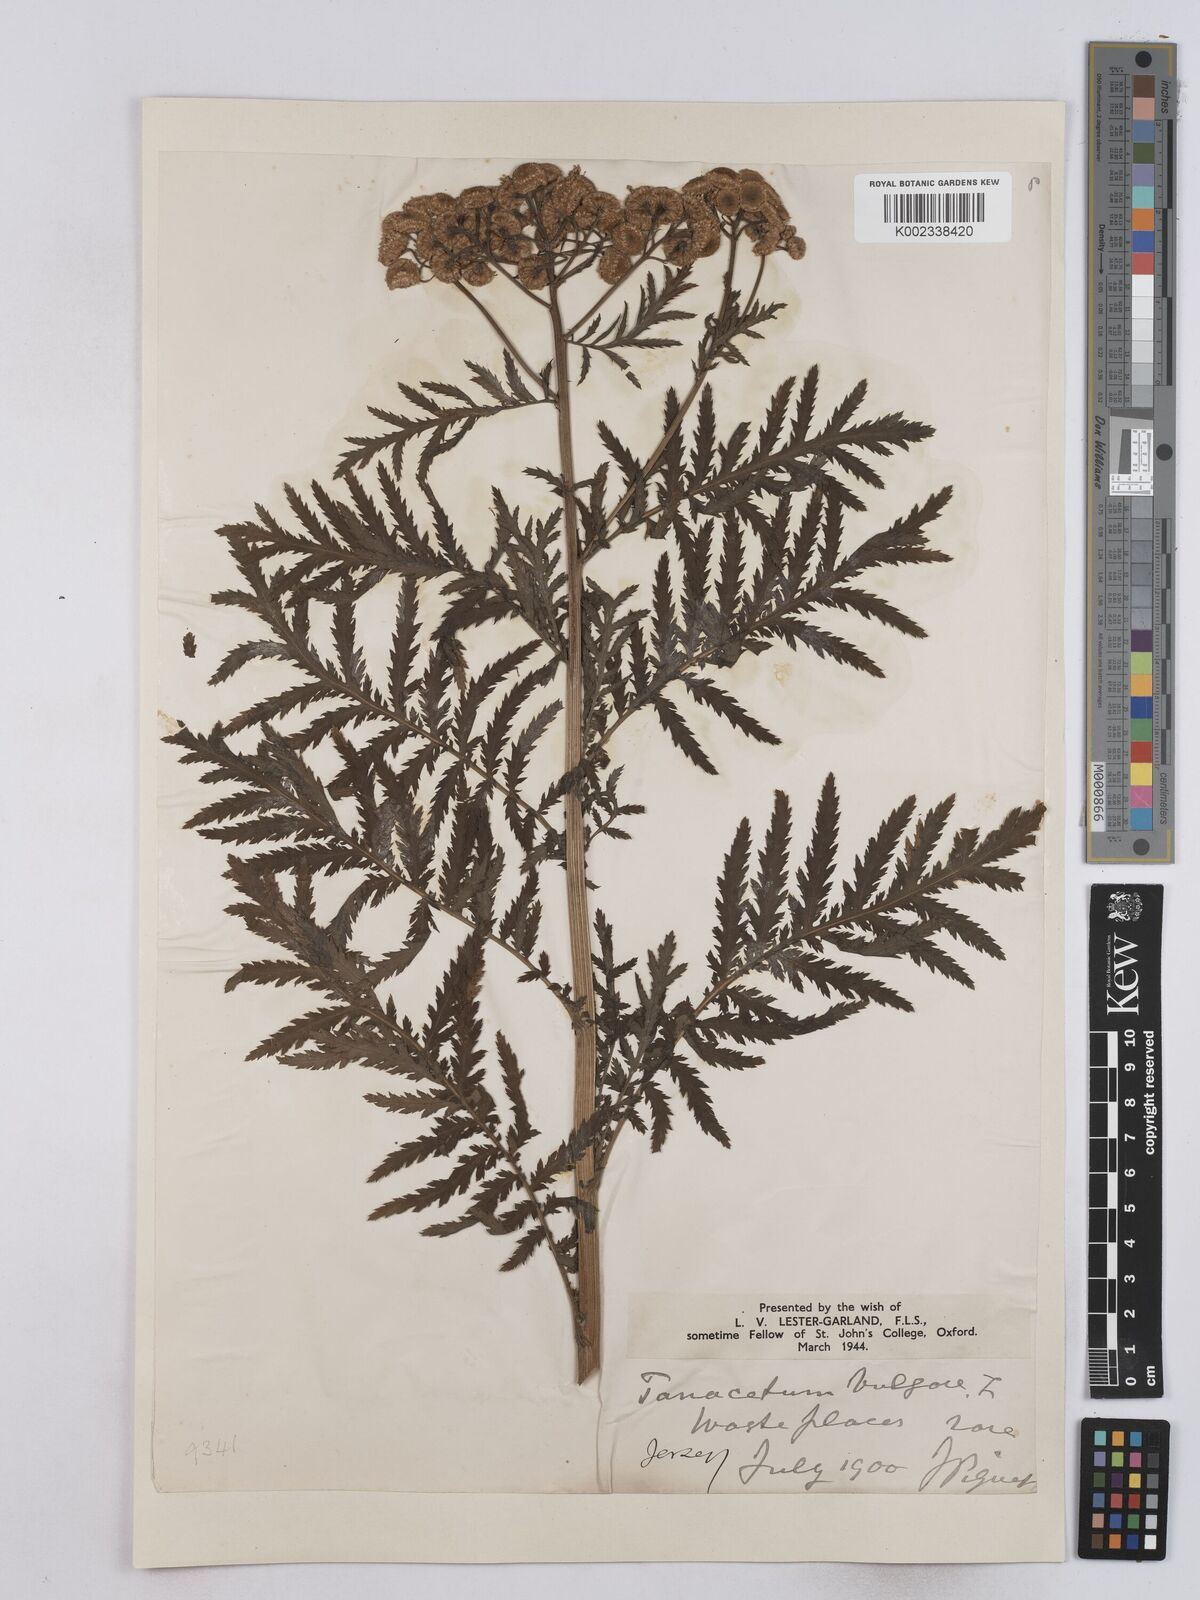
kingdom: Plantae
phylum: Tracheophyta
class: Magnoliopsida
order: Asterales
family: Asteraceae
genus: Tanacetum
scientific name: Tanacetum vulgare
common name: Common tansy
